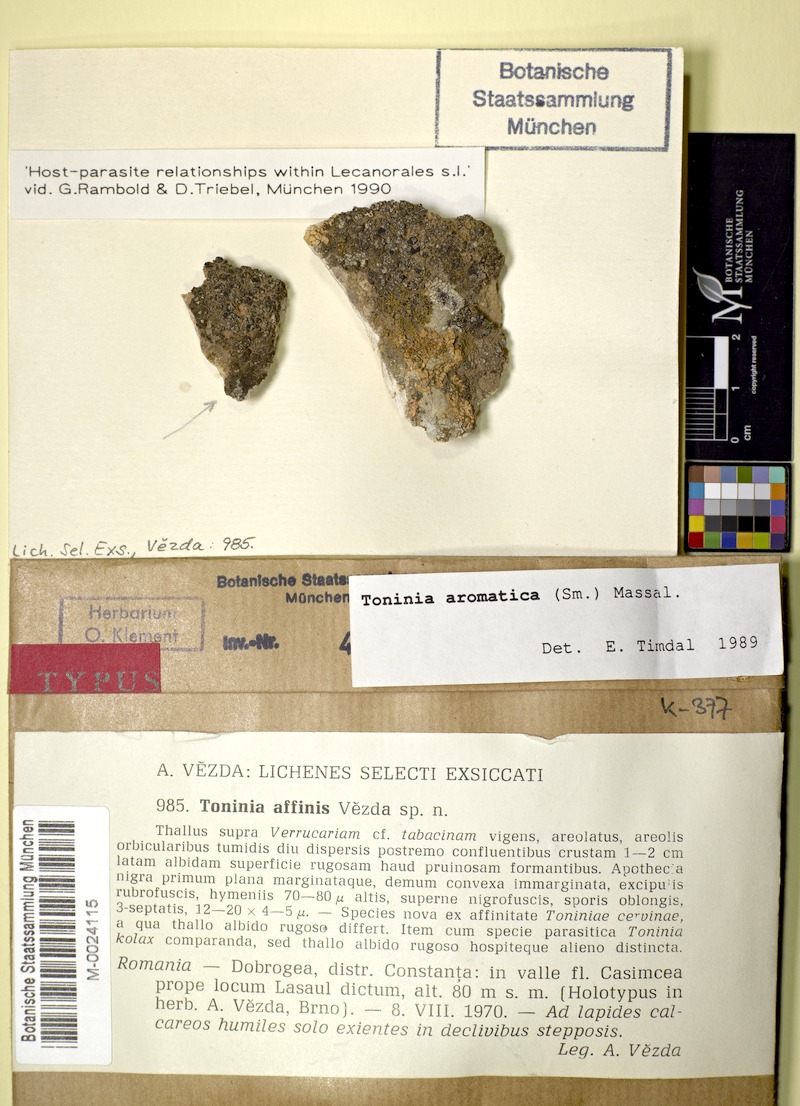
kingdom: Fungi
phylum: Ascomycota
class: Lecanoromycetes
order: Lecanorales
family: Ramalinaceae
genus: Toniniopsis
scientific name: Toniniopsis aromatica
